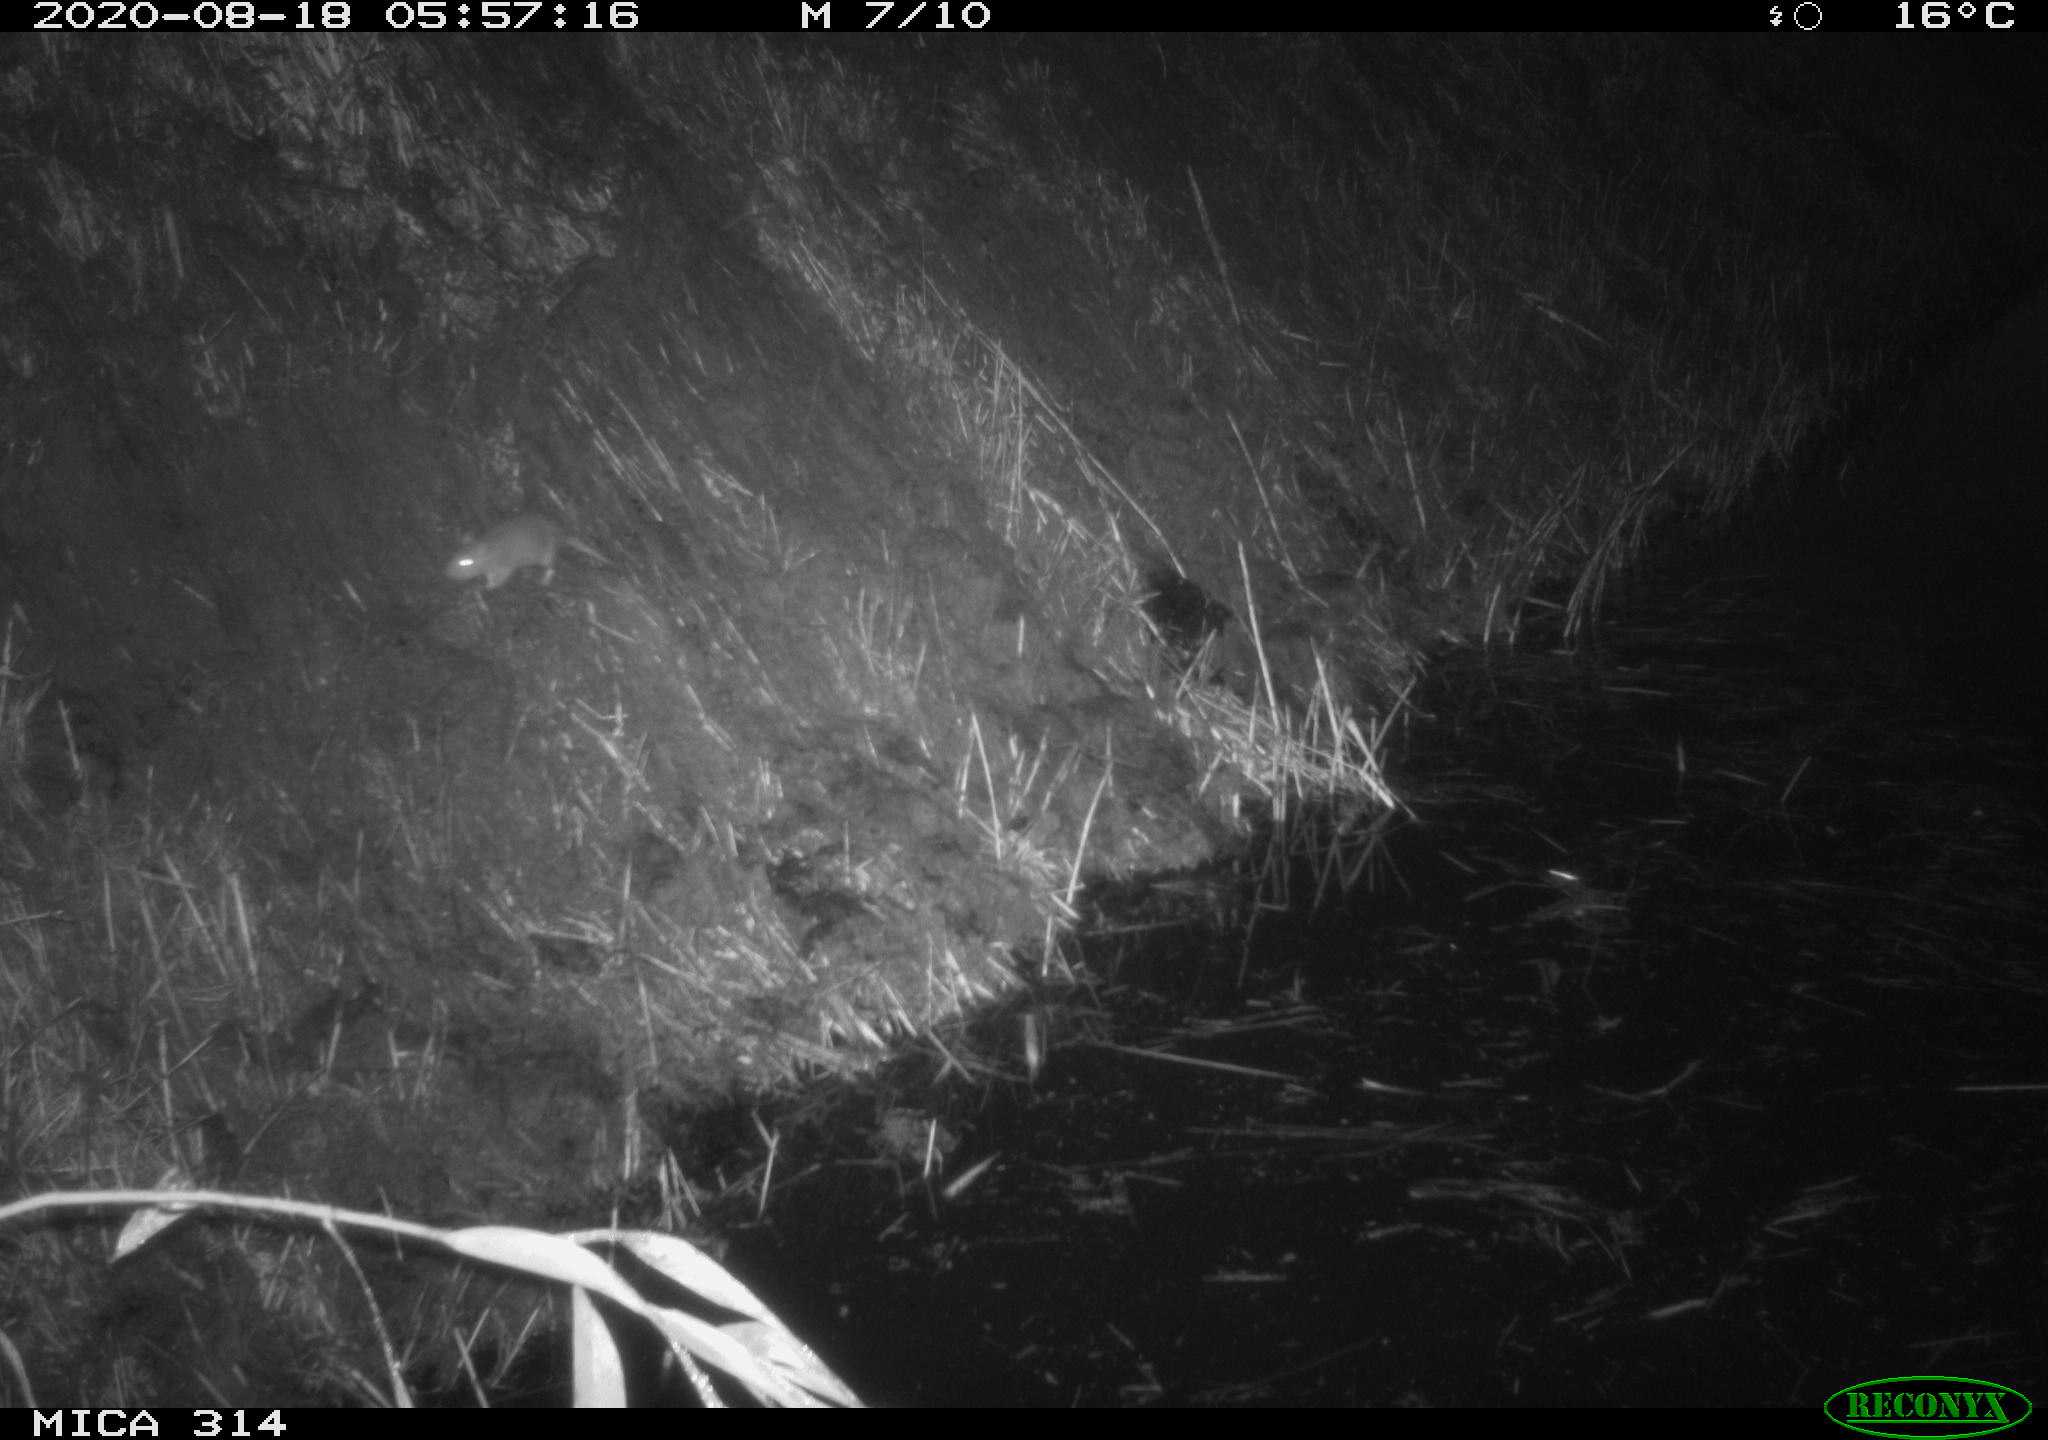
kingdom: Animalia
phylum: Chordata
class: Mammalia
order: Rodentia
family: Muridae
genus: Rattus
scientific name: Rattus norvegicus
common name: Brown rat
